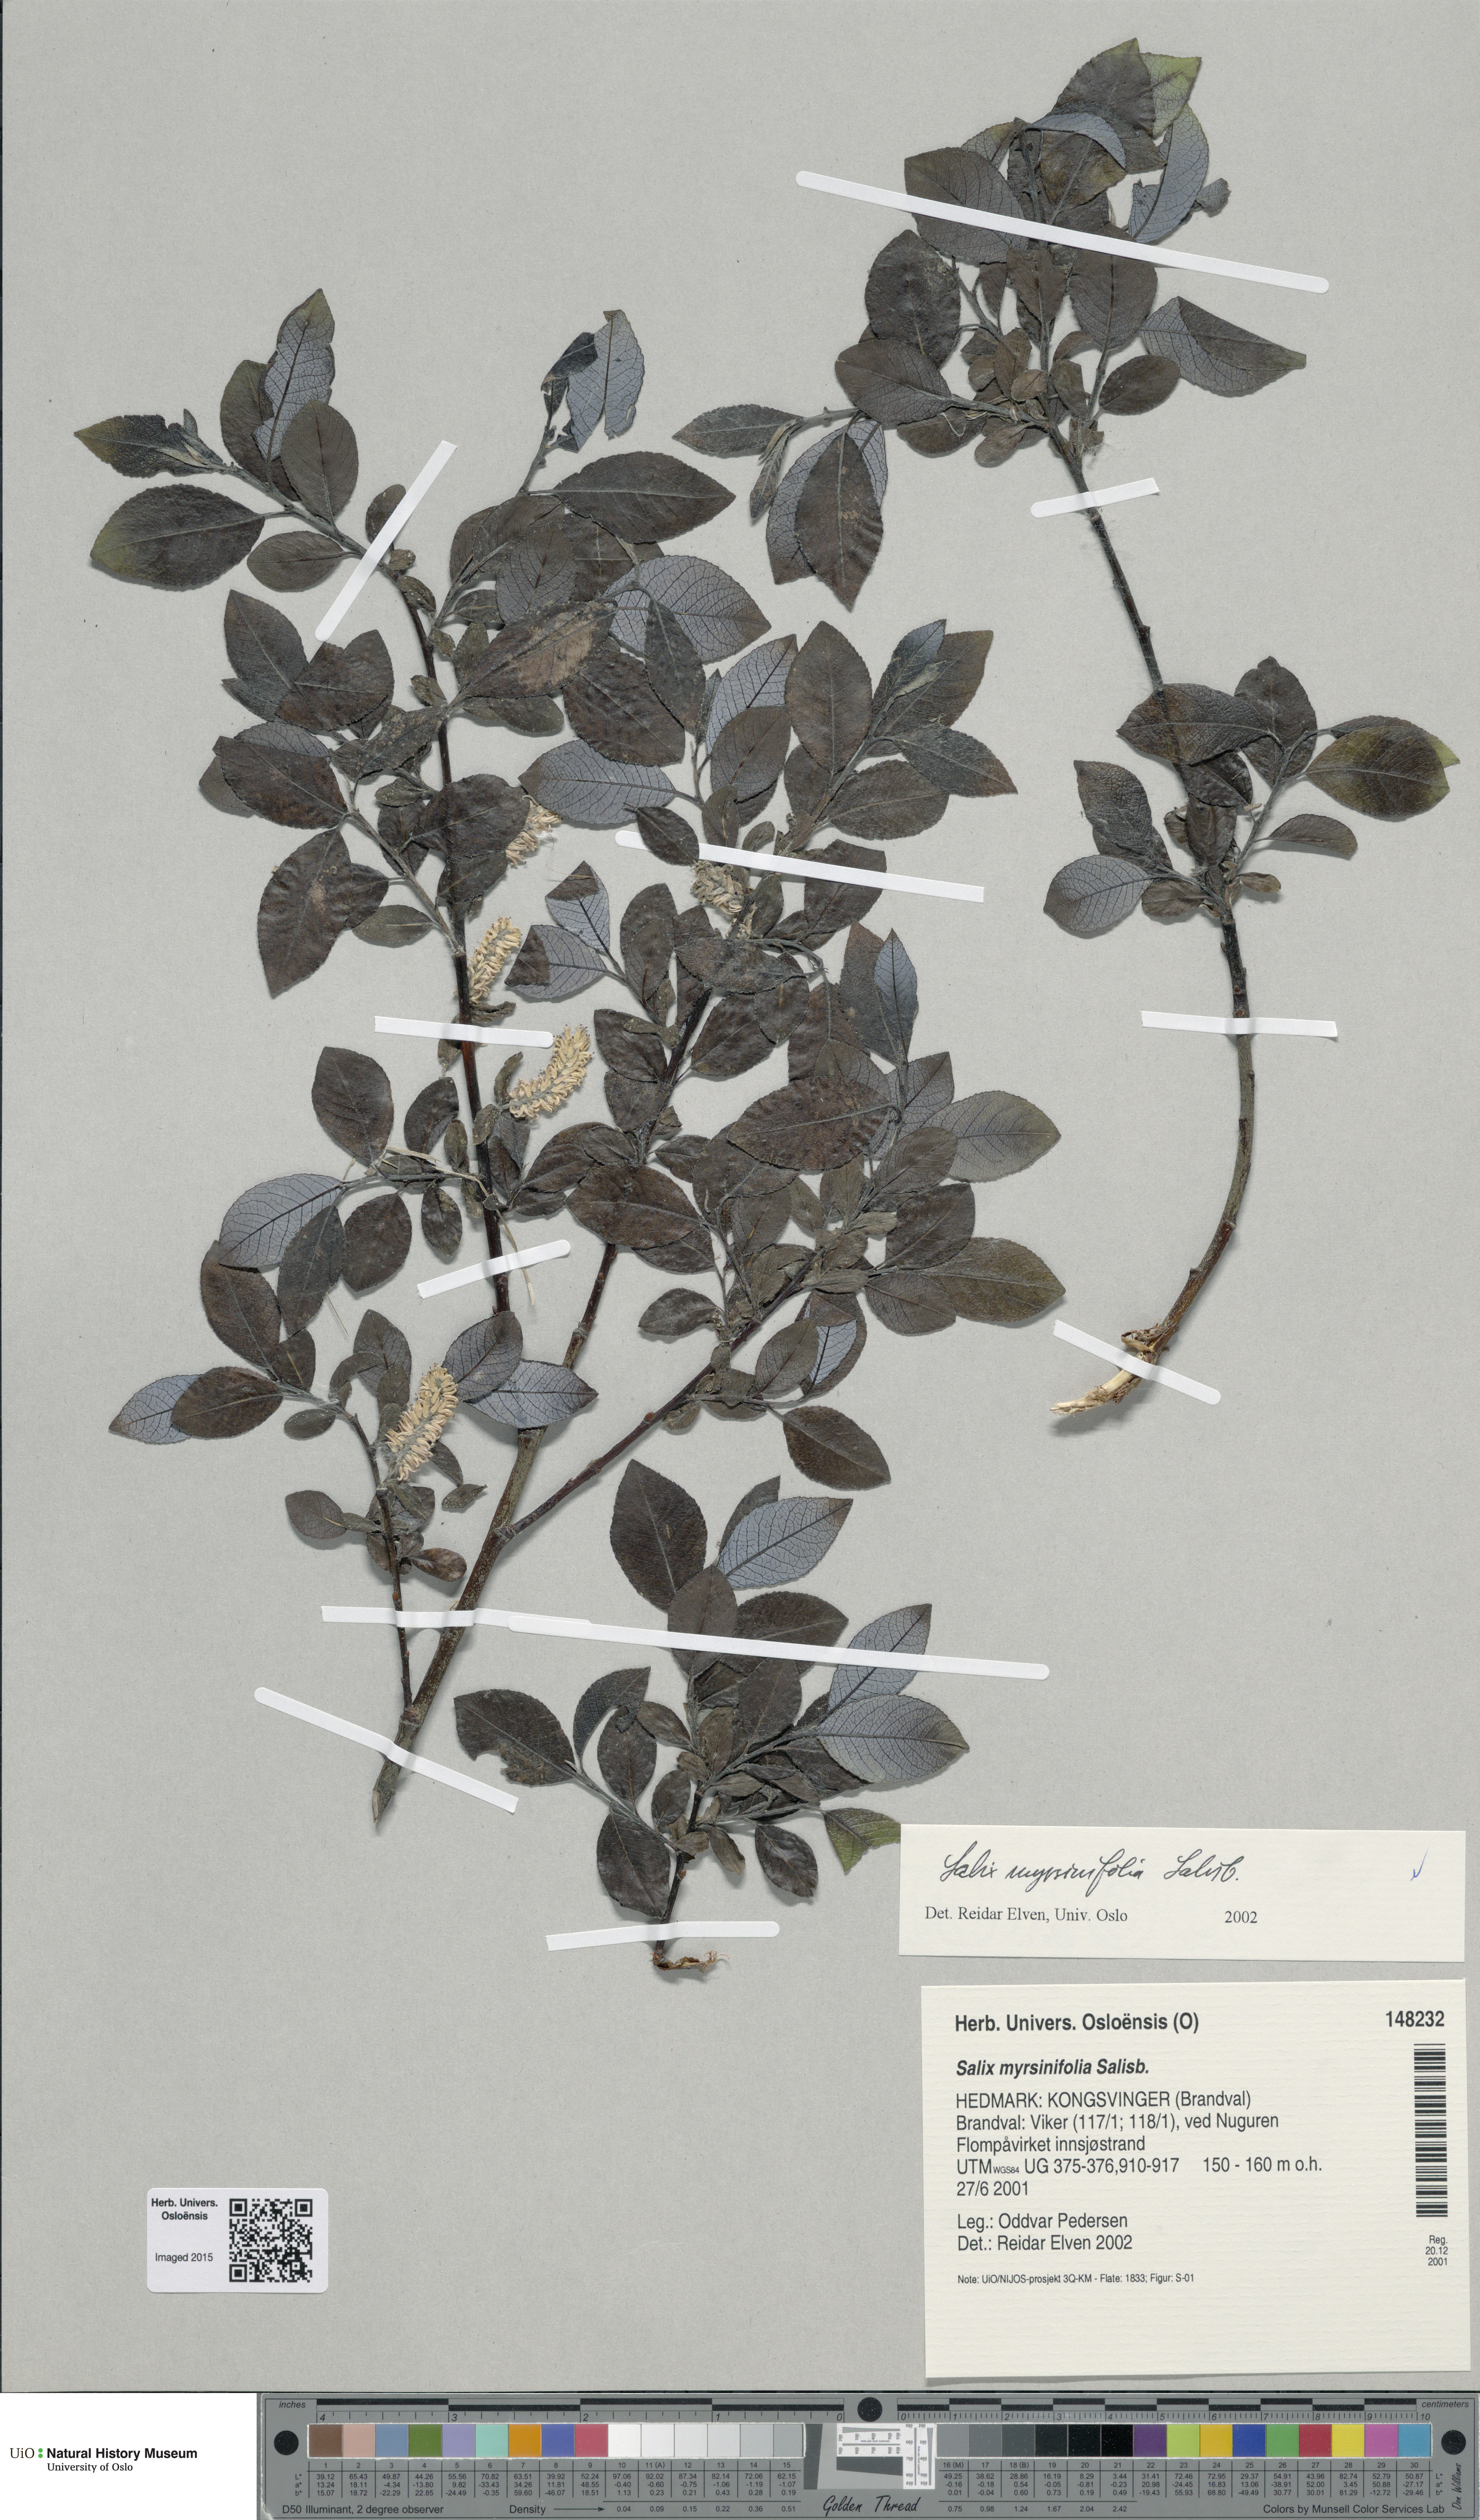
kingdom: Plantae
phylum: Tracheophyta
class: Magnoliopsida
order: Malpighiales
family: Salicaceae
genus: Salix
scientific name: Salix myrsinifolia
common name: Dark-leaved willow
